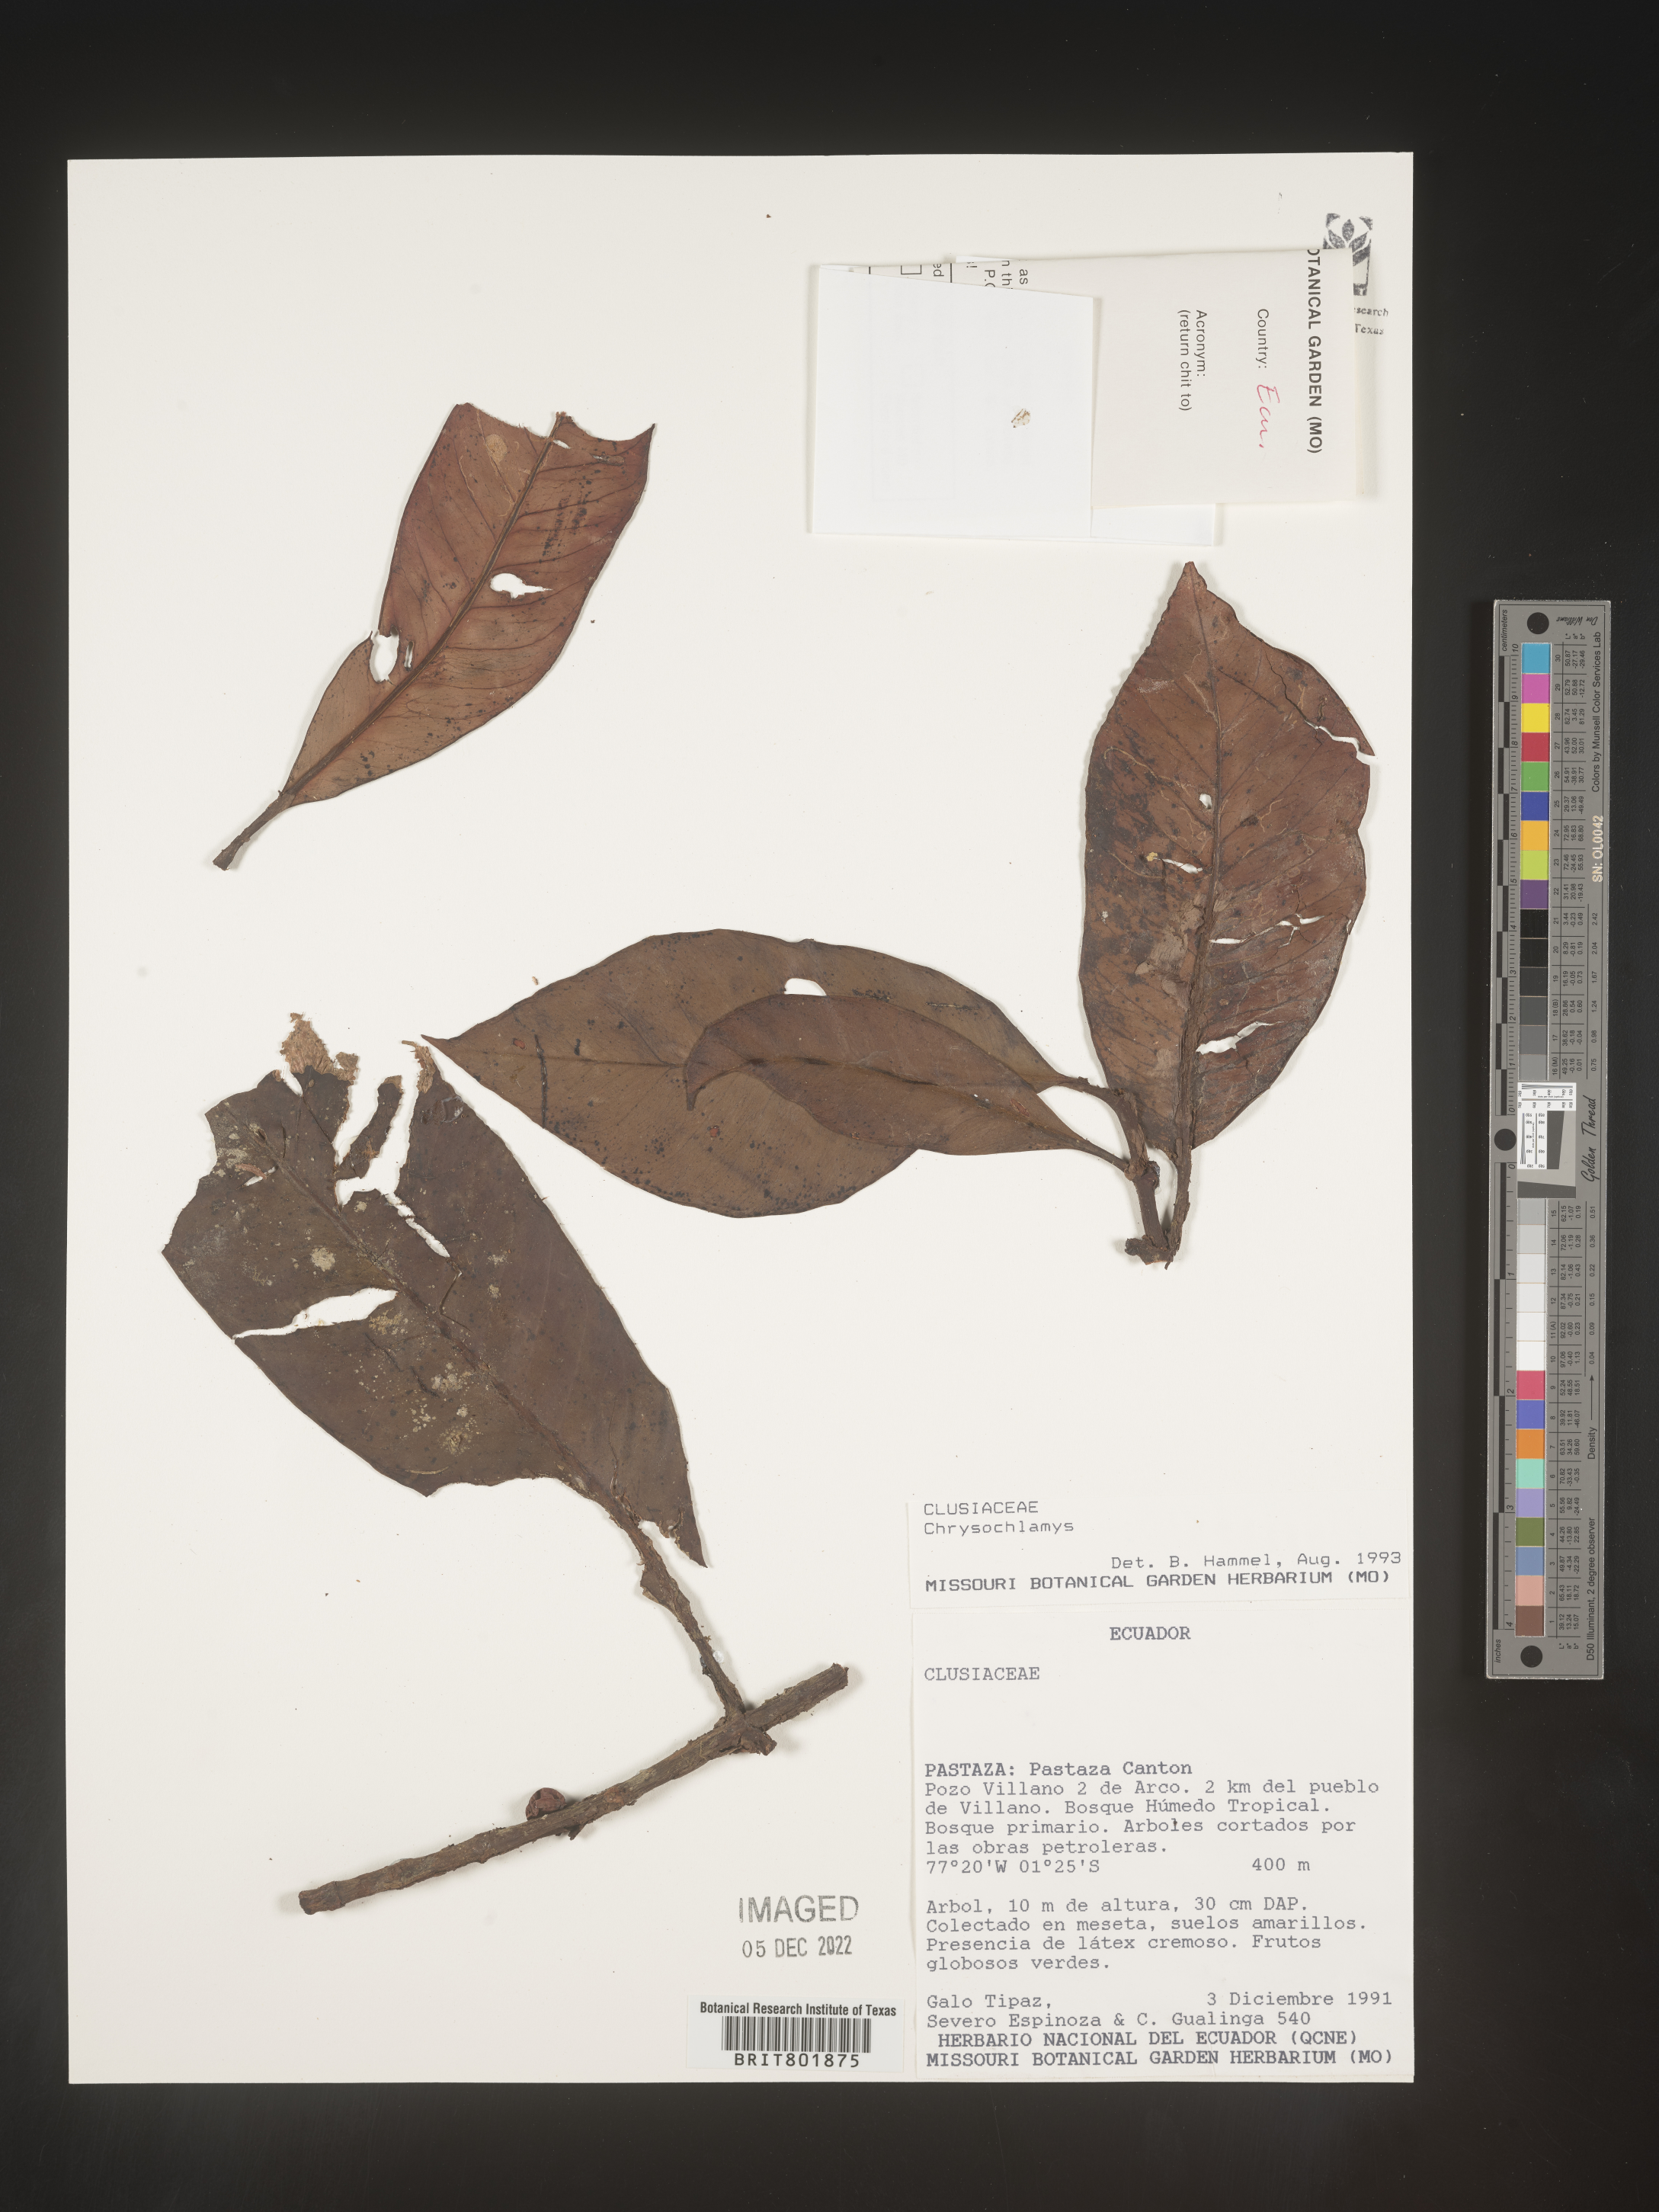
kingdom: Plantae
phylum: Tracheophyta
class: Magnoliopsida
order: Malpighiales
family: Clusiaceae
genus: Chrysochlamys
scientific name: Chrysochlamys
